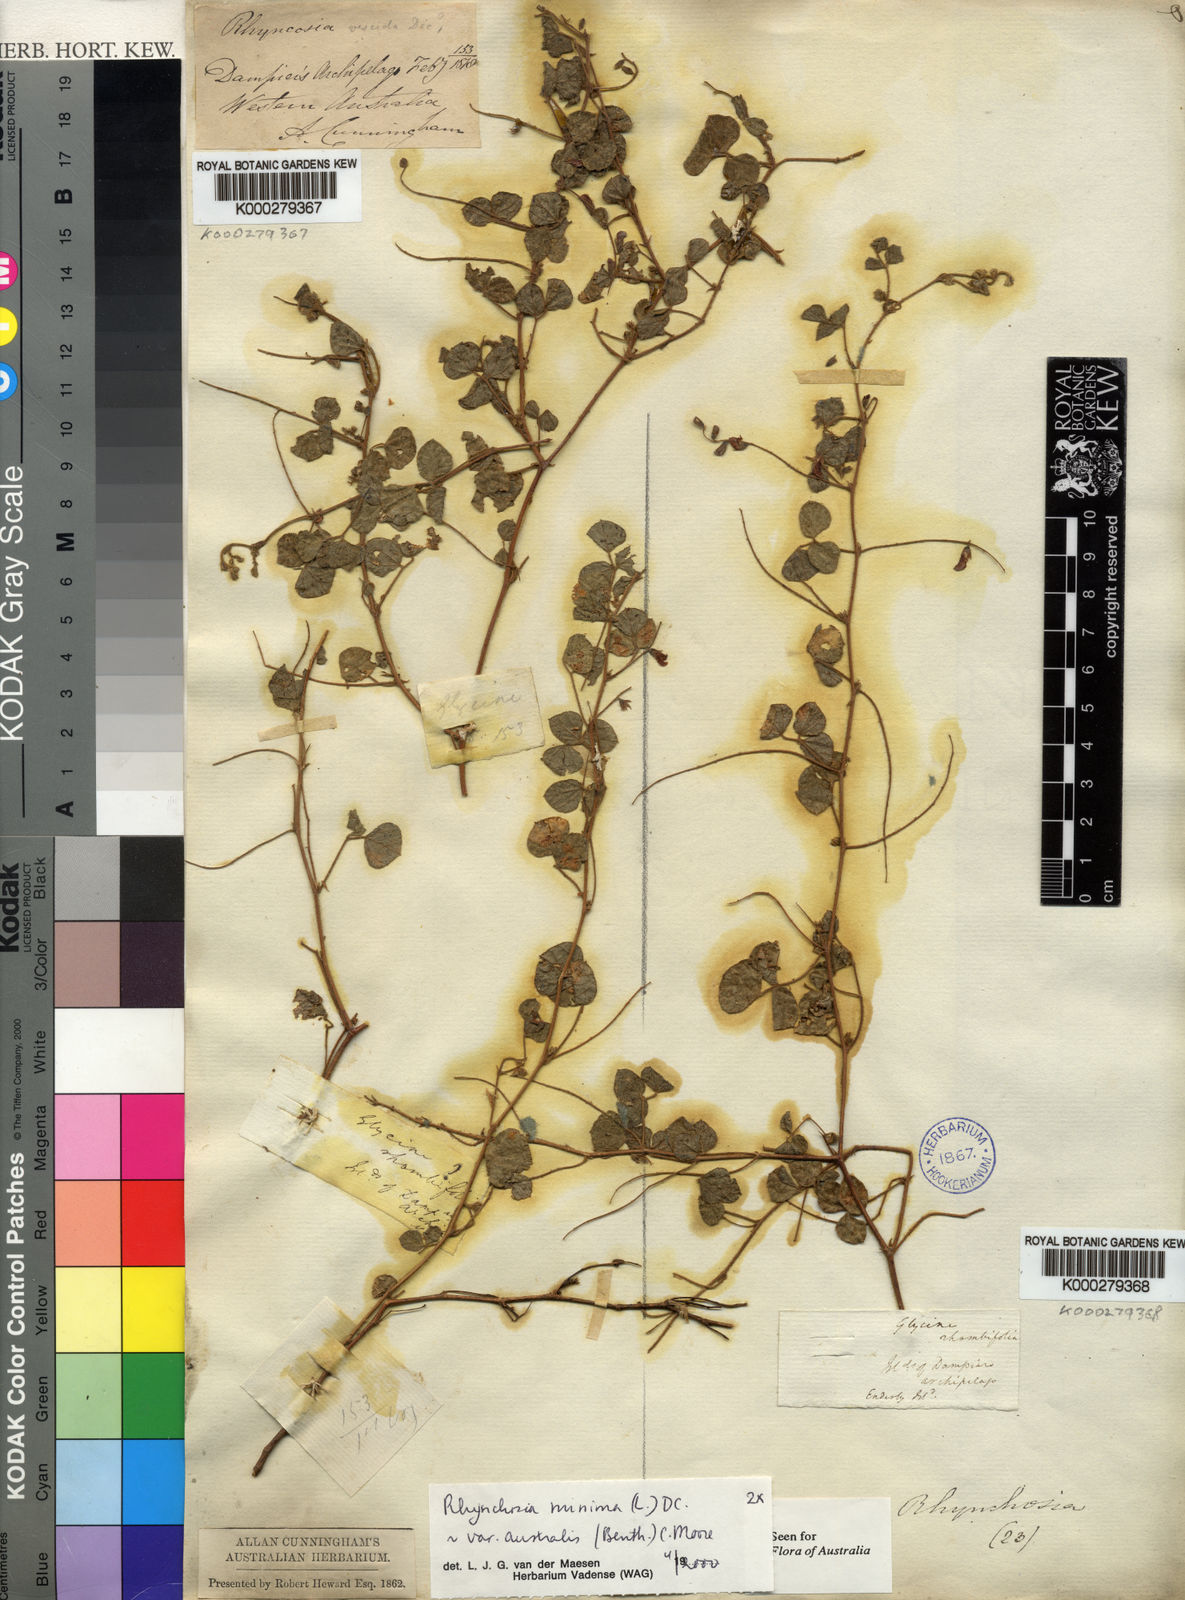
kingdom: Plantae
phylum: Tracheophyta
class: Magnoliopsida
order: Fabales
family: Fabaceae
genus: Rhynchosia
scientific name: Rhynchosia australis
